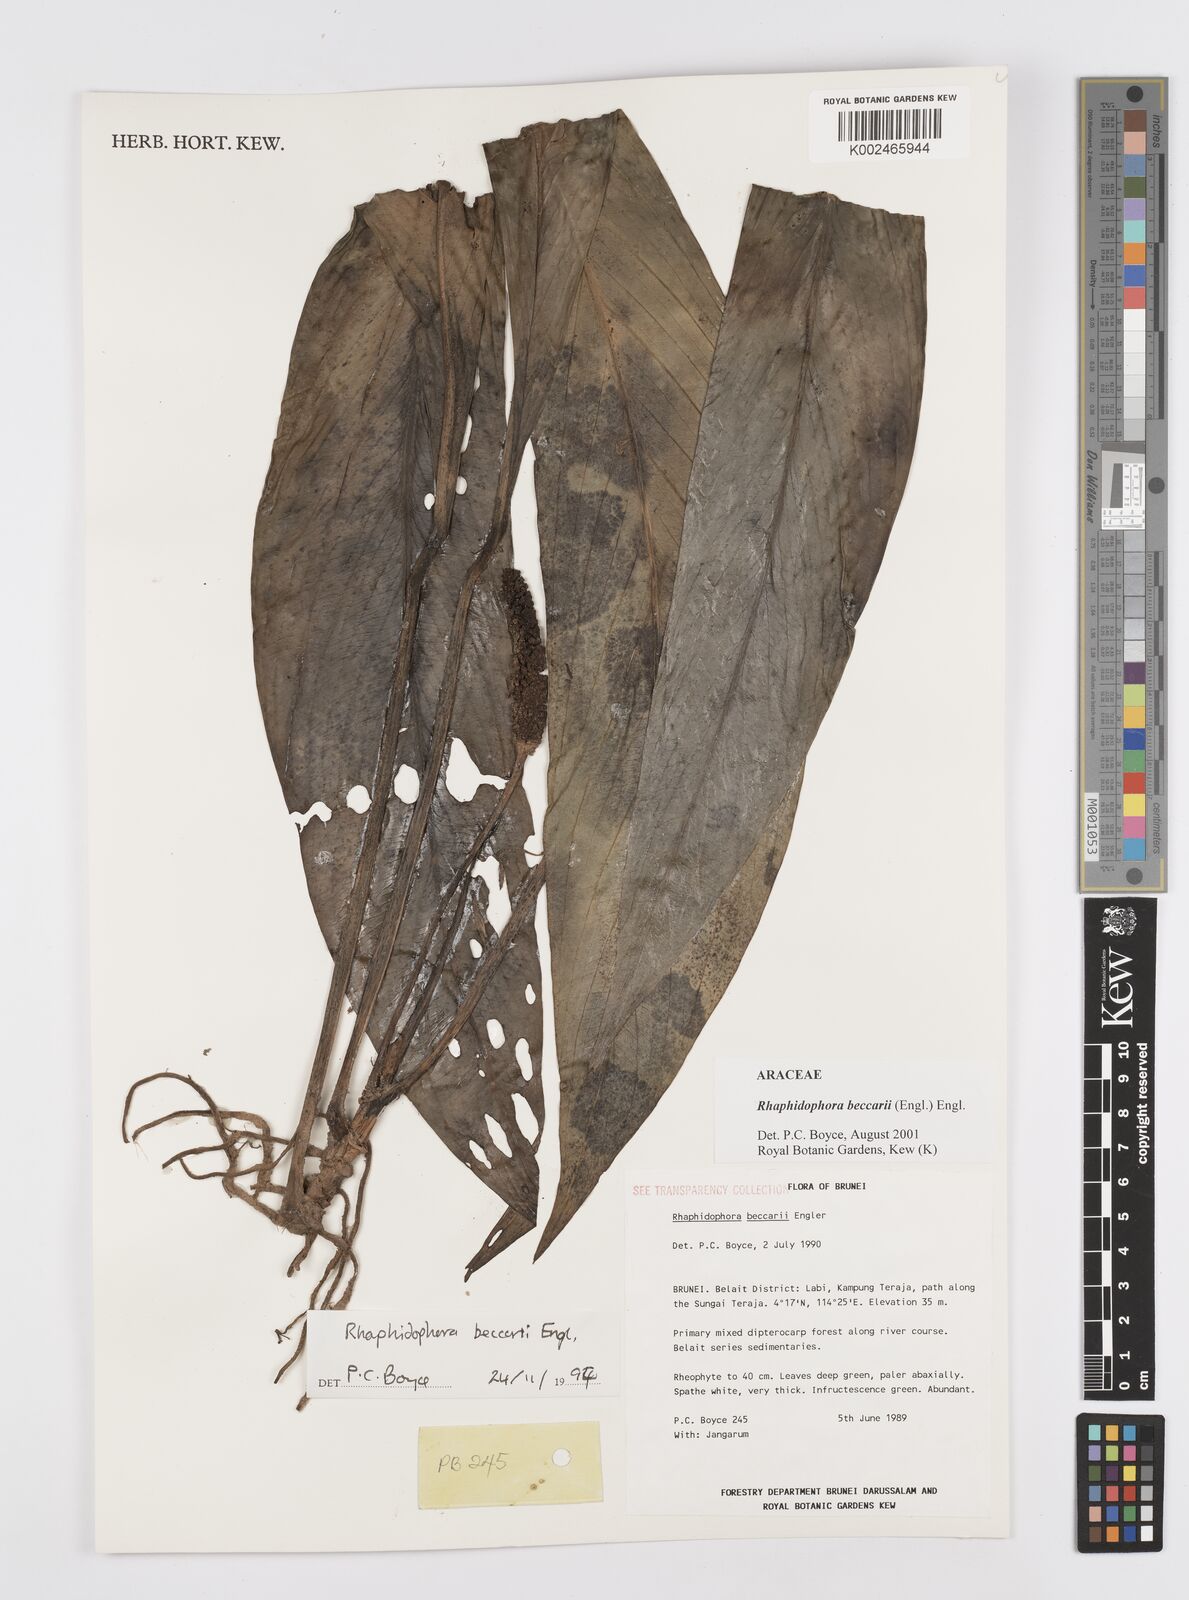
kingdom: Plantae
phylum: Tracheophyta
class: Liliopsida
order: Alismatales
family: Araceae
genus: Rhaphidophora
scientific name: Rhaphidophora beccarii
